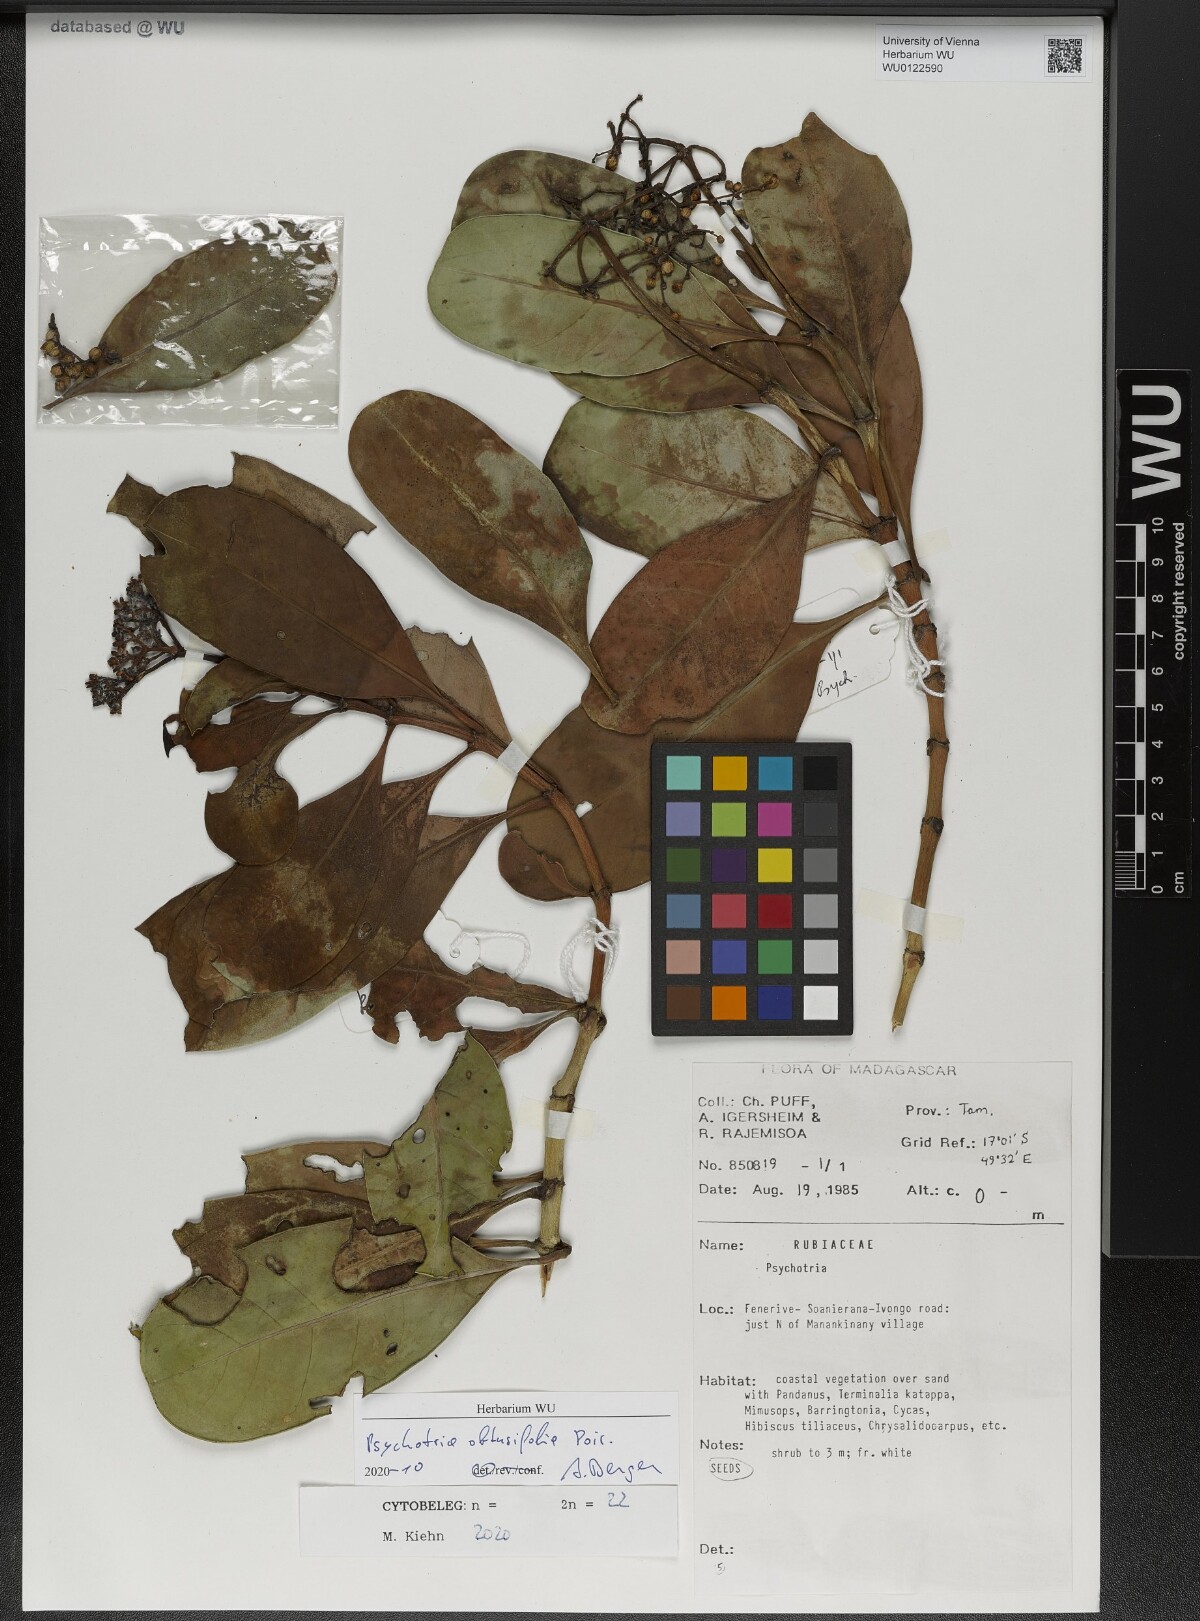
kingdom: Plantae
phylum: Tracheophyta
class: Magnoliopsida
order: Gentianales
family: Rubiaceae
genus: Psychotria
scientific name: Psychotria obtusifolia
